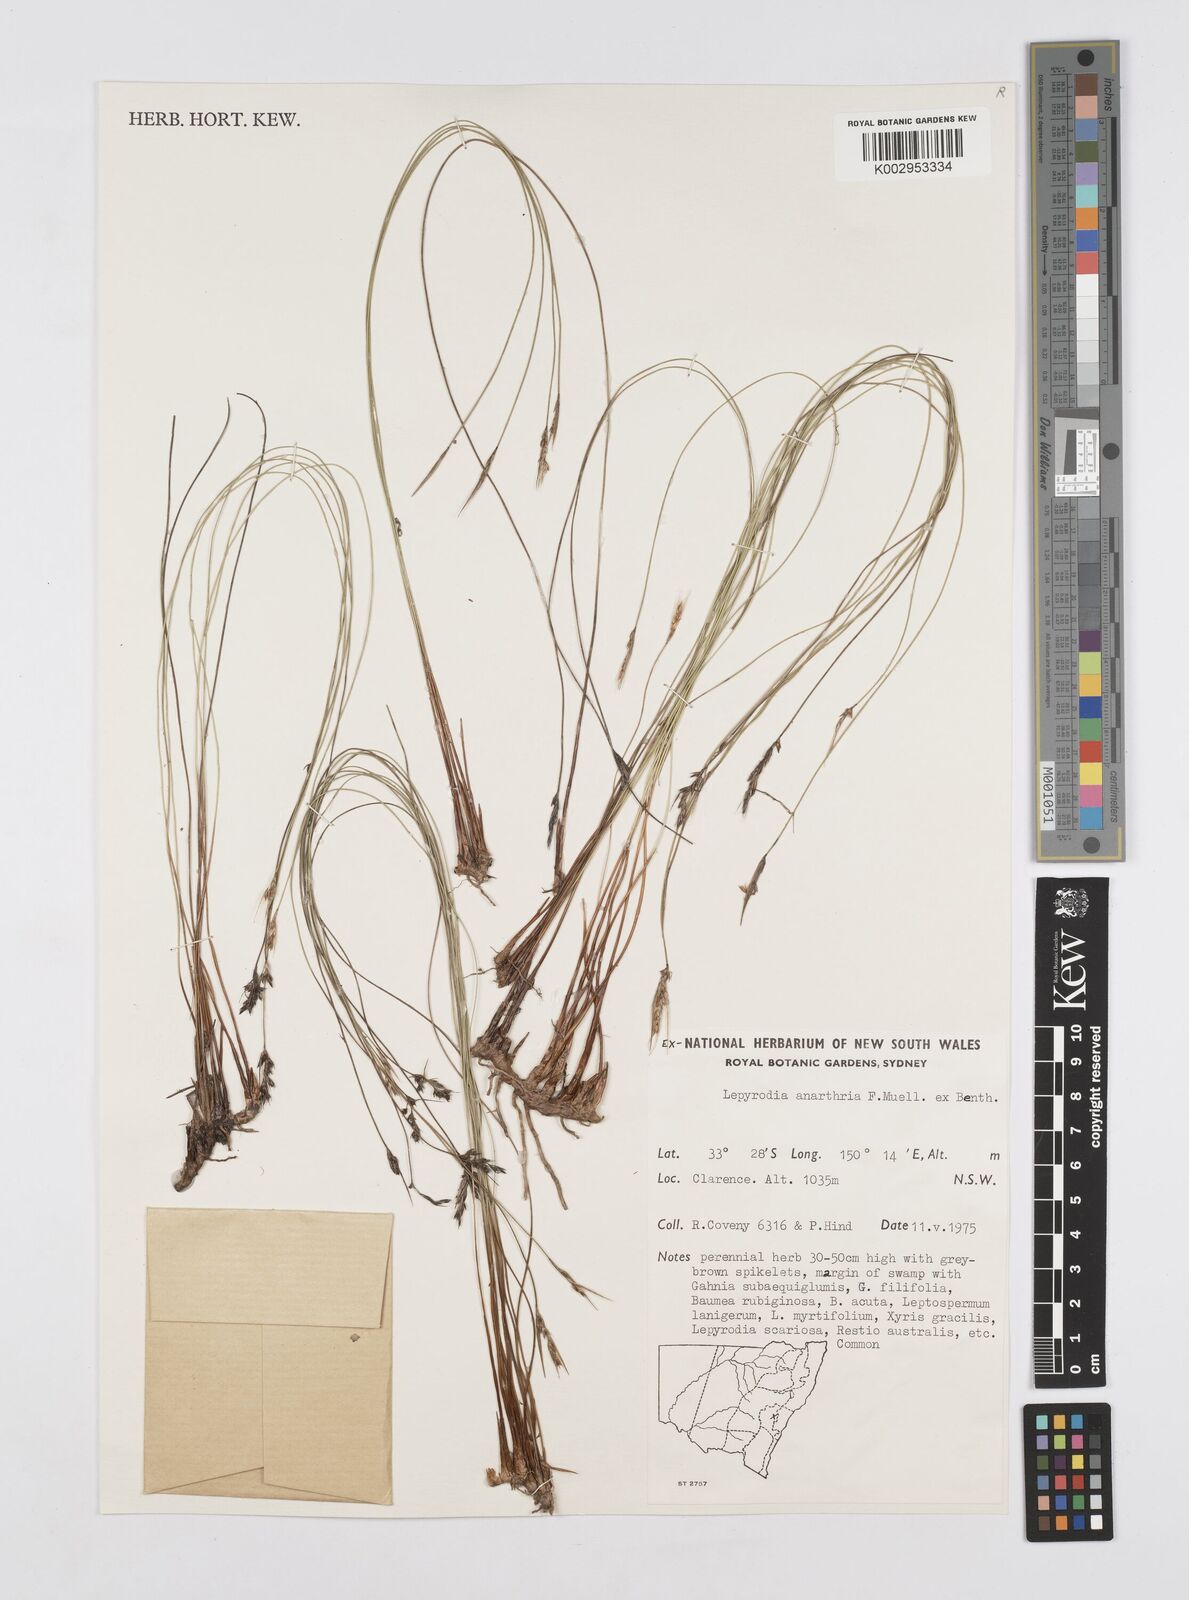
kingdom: Plantae
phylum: Tracheophyta
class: Liliopsida
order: Poales
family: Restionaceae
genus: Lepyrodia
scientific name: Lepyrodia anarthria
